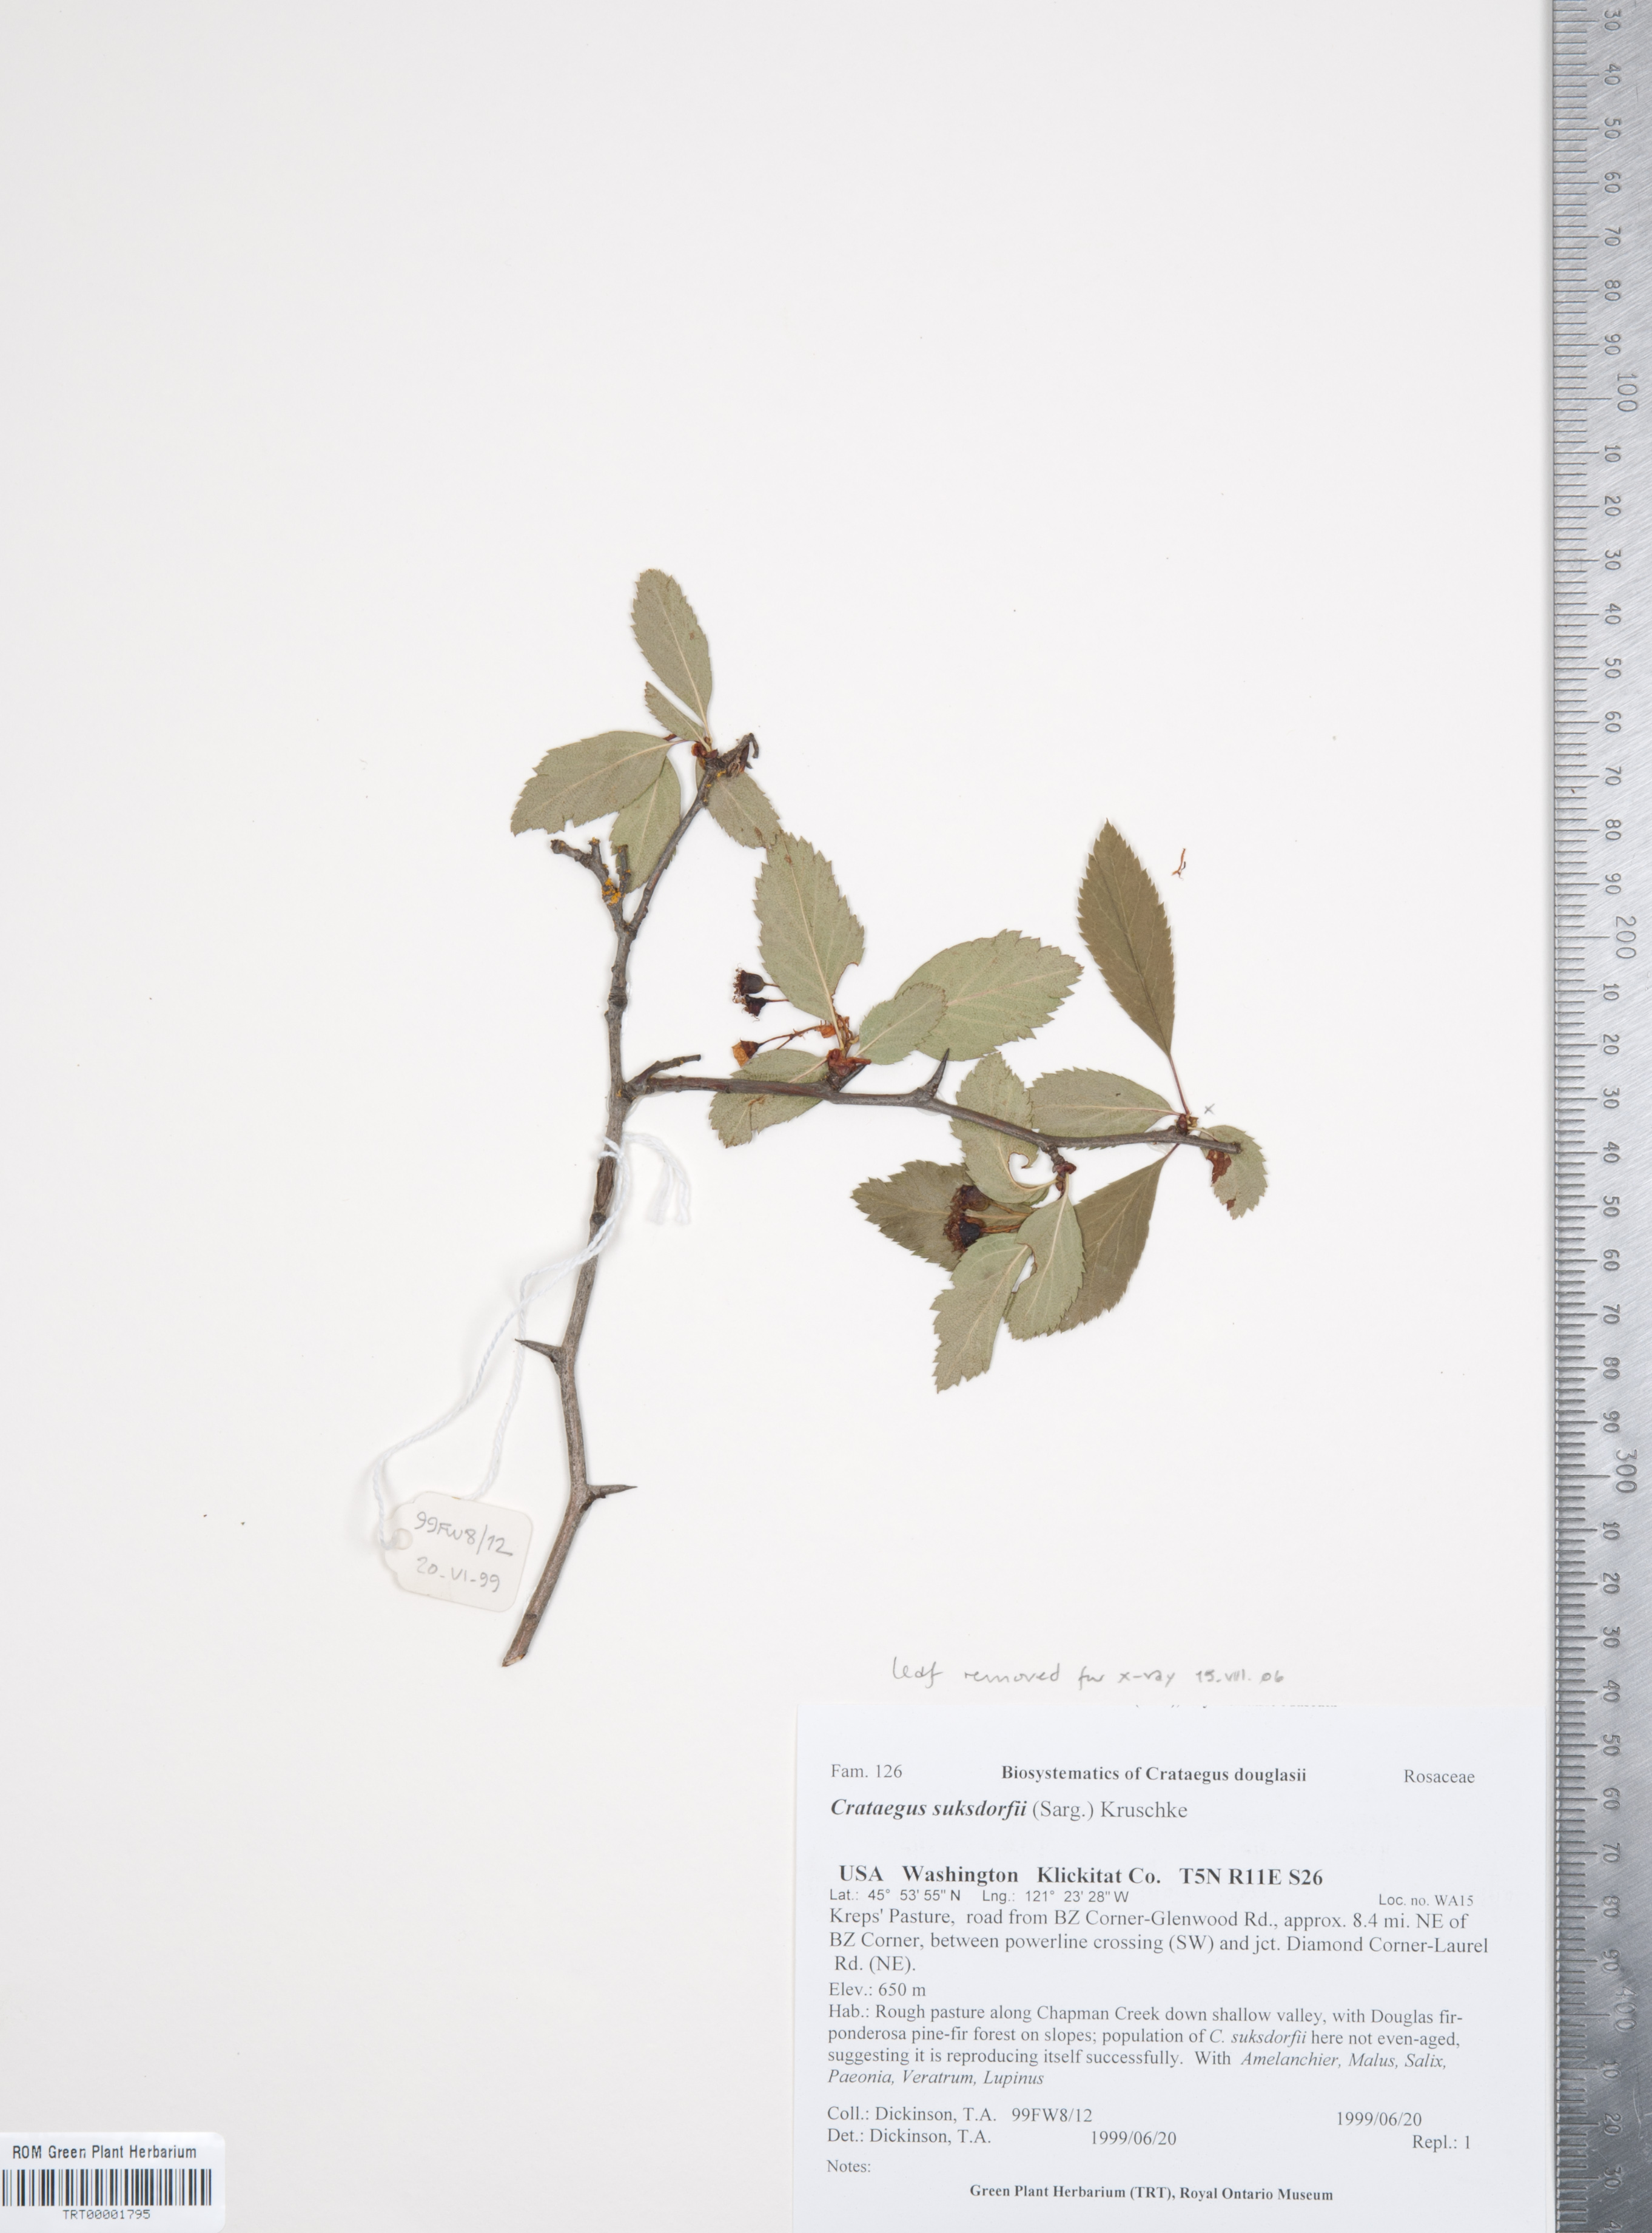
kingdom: Plantae
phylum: Tracheophyta
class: Magnoliopsida
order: Rosales
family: Rosaceae
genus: Crataegus
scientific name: Crataegus gaylussacia
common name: Huckleberry hawthorn
